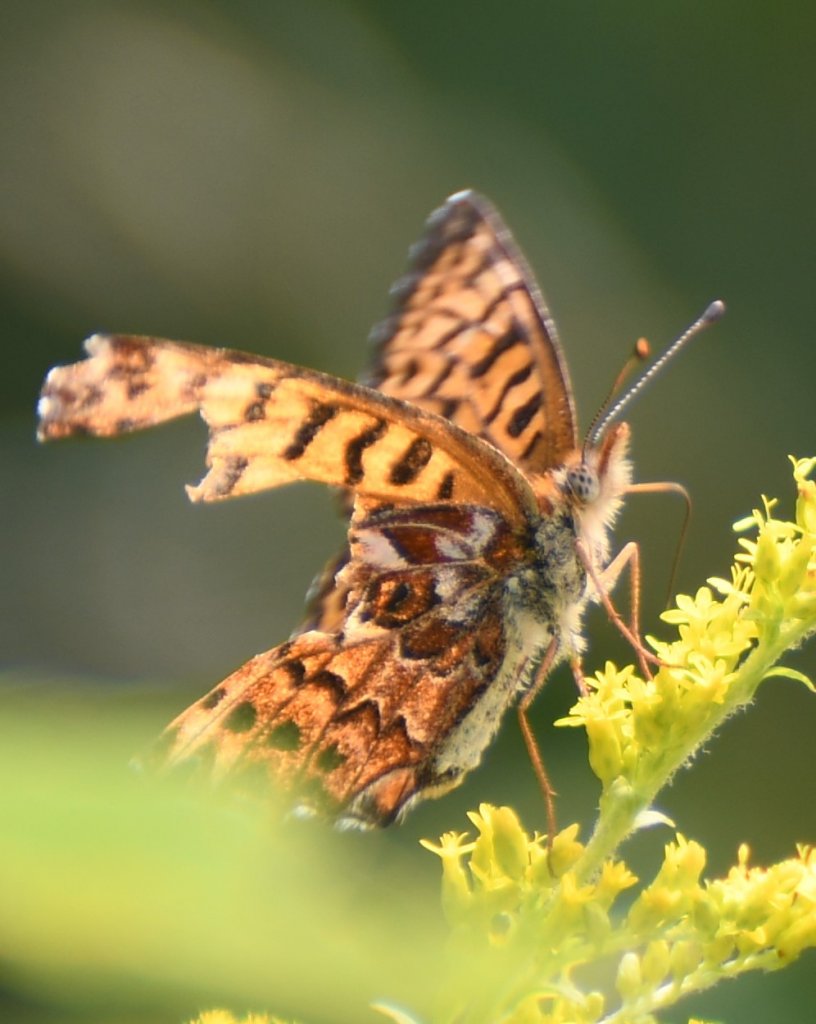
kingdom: Animalia
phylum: Arthropoda
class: Insecta
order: Lepidoptera
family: Nymphalidae
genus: Boloria
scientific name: Boloria chariclea
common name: Arctic Fritillary
